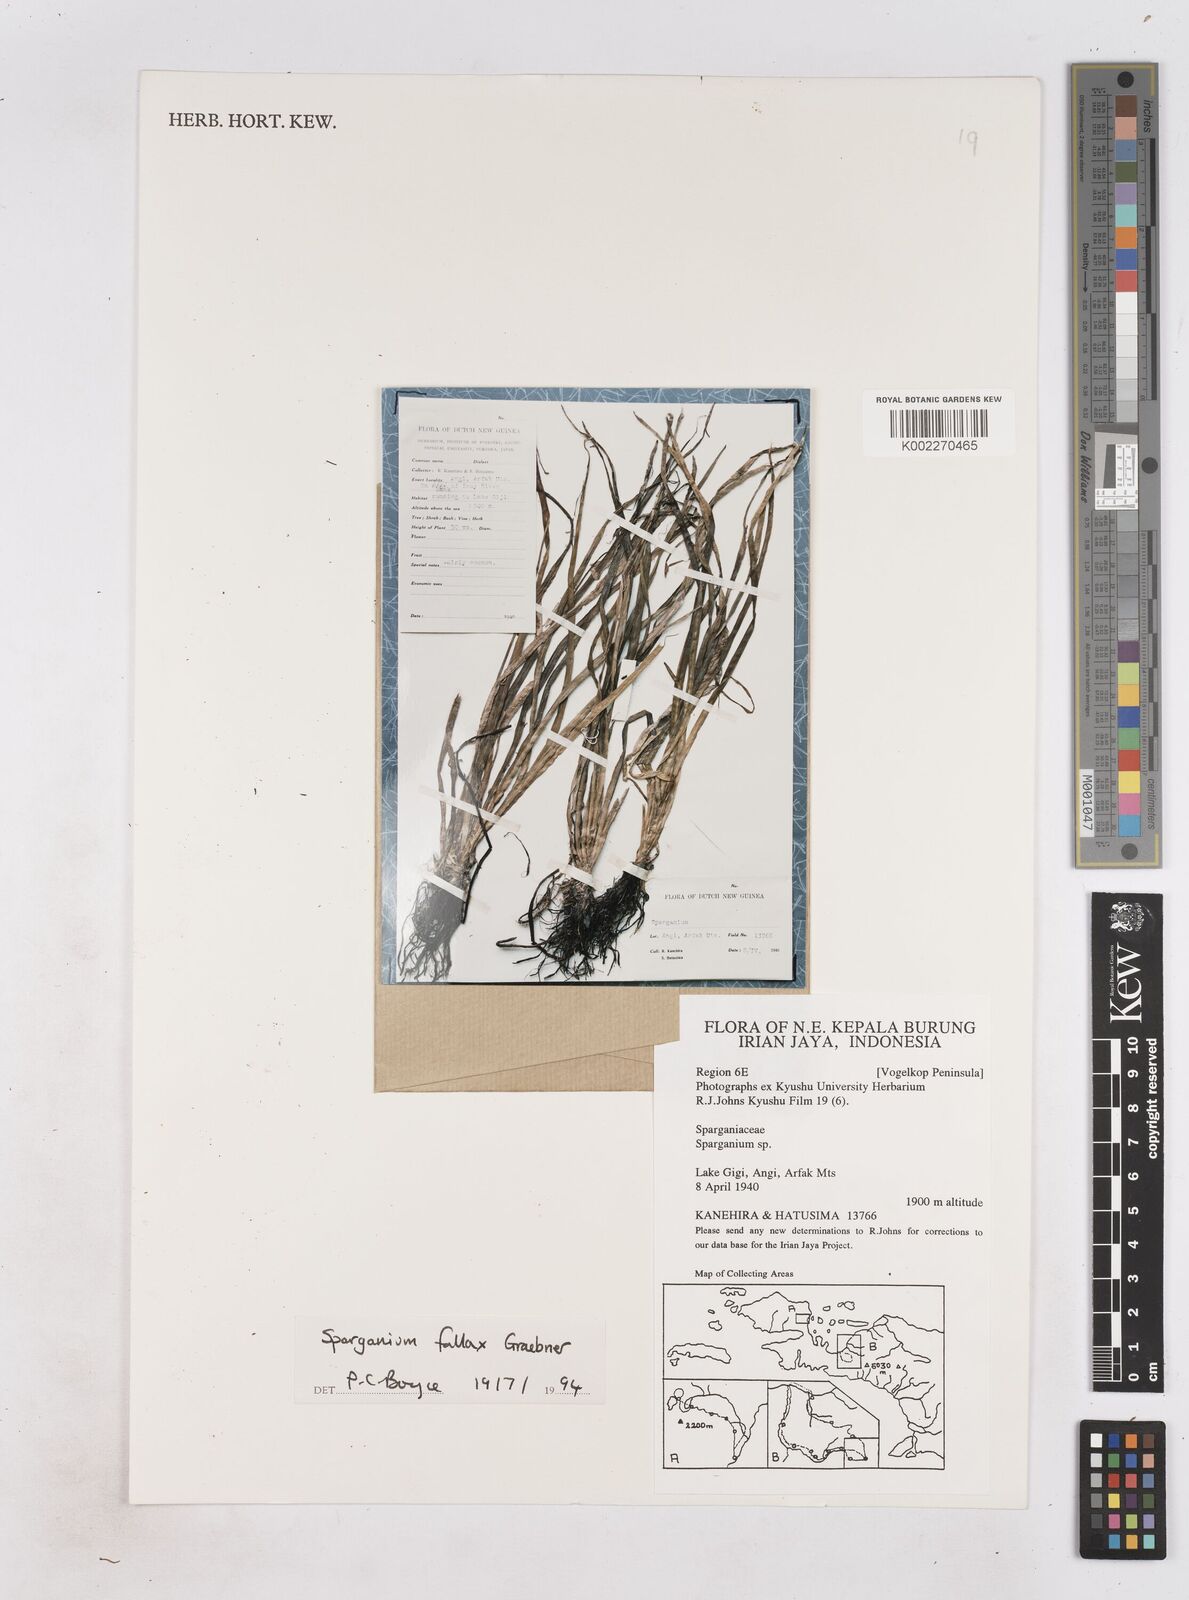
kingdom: Plantae
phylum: Tracheophyta
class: Liliopsida
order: Poales
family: Typhaceae
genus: Sparganium
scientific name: Sparganium fallax
